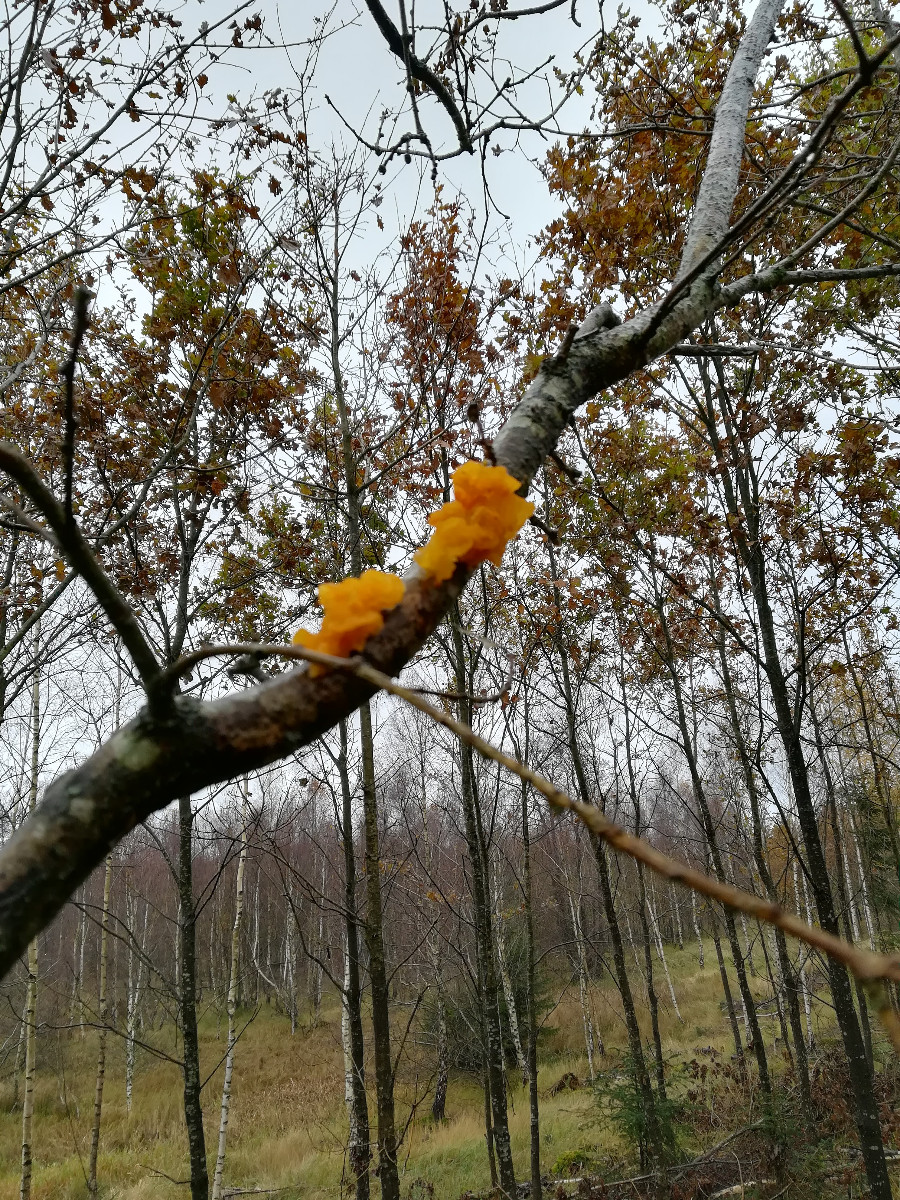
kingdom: Fungi
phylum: Basidiomycota
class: Tremellomycetes
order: Tremellales
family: Tremellaceae
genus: Tremella
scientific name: Tremella mesenterica
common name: gul bævresvamp
